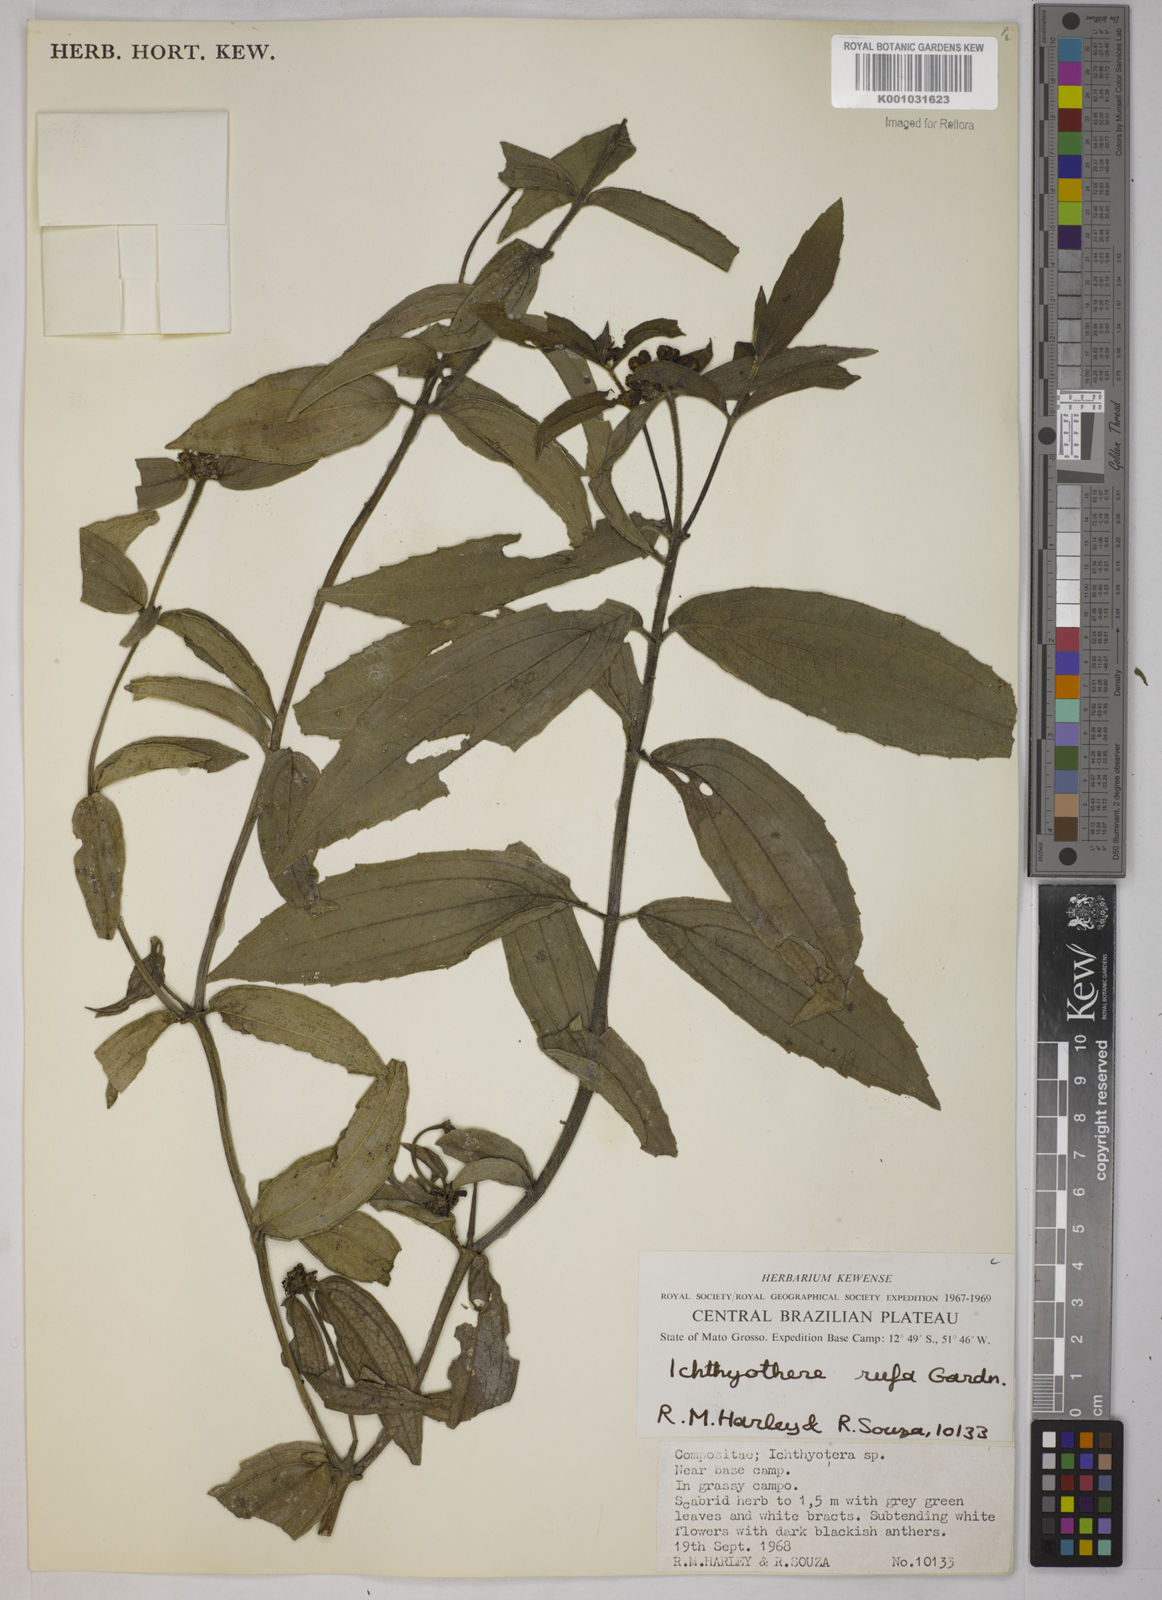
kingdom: Plantae
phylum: Tracheophyta
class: Magnoliopsida
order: Asterales
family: Asteraceae
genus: Ichthyothere
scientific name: Ichthyothere rufa
